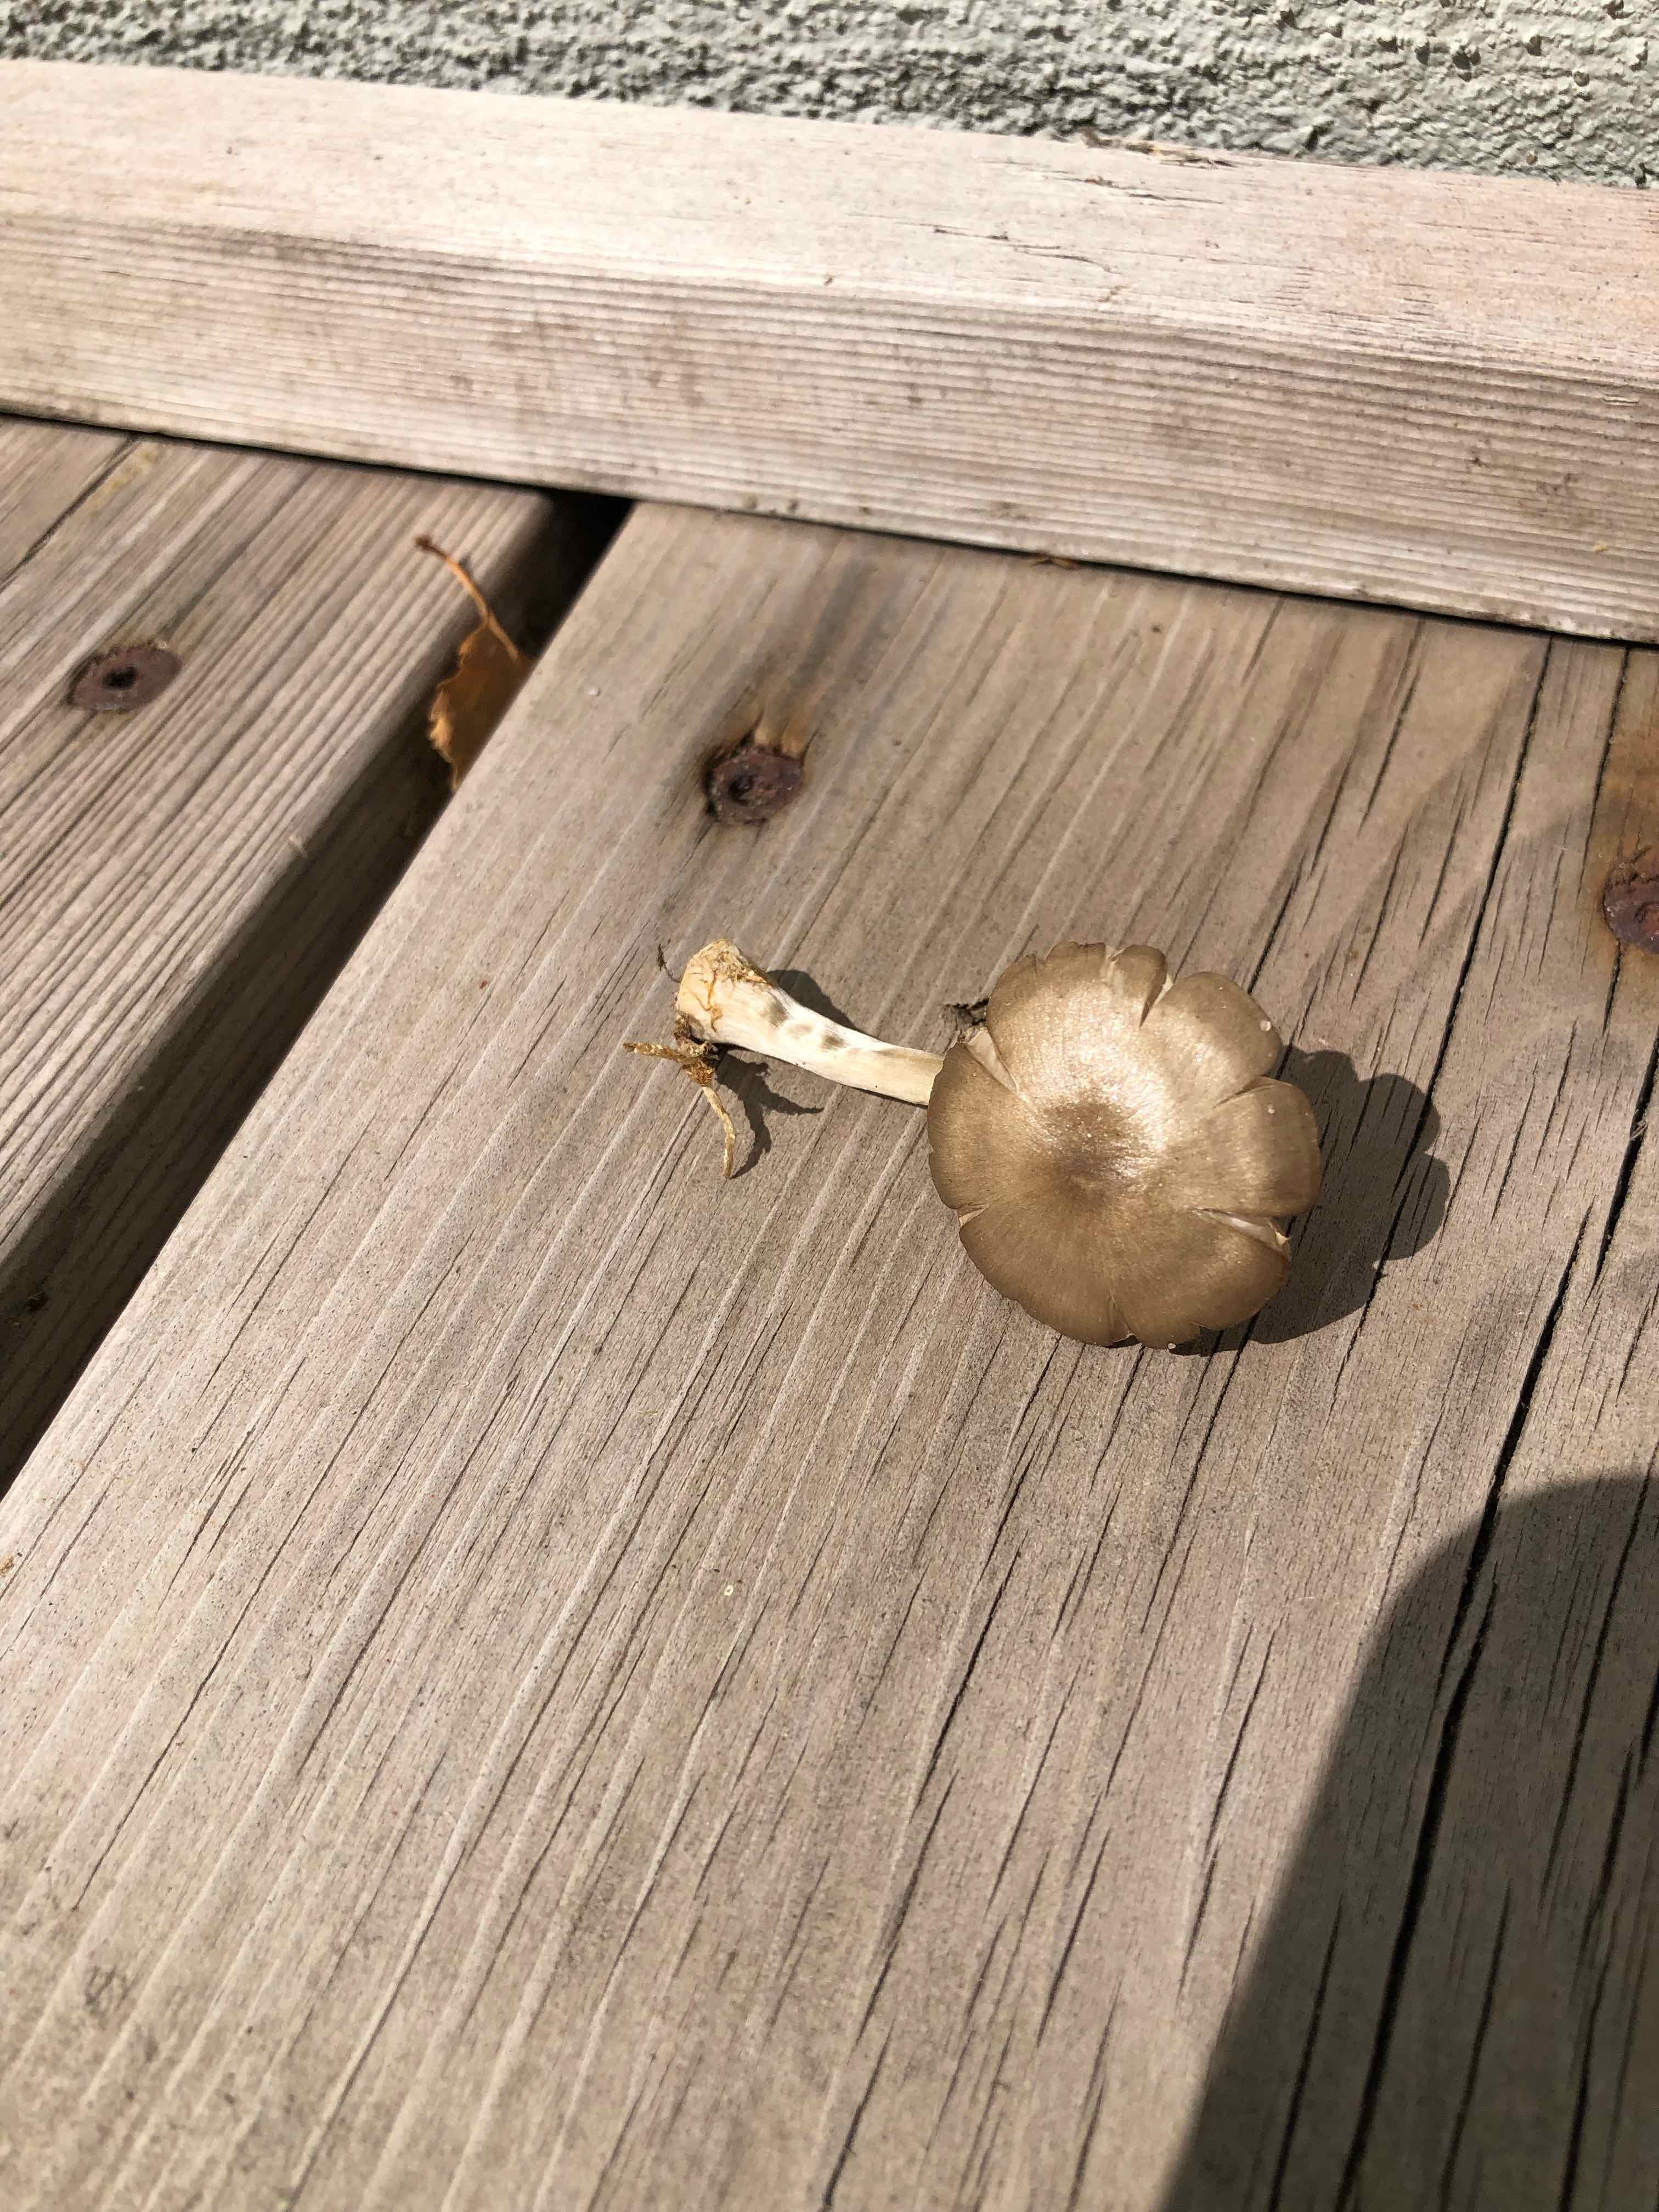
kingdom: Fungi
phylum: Basidiomycota
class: Agaricomycetes
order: Agaricales
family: Entolomataceae
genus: Entoloma
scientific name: Entoloma
